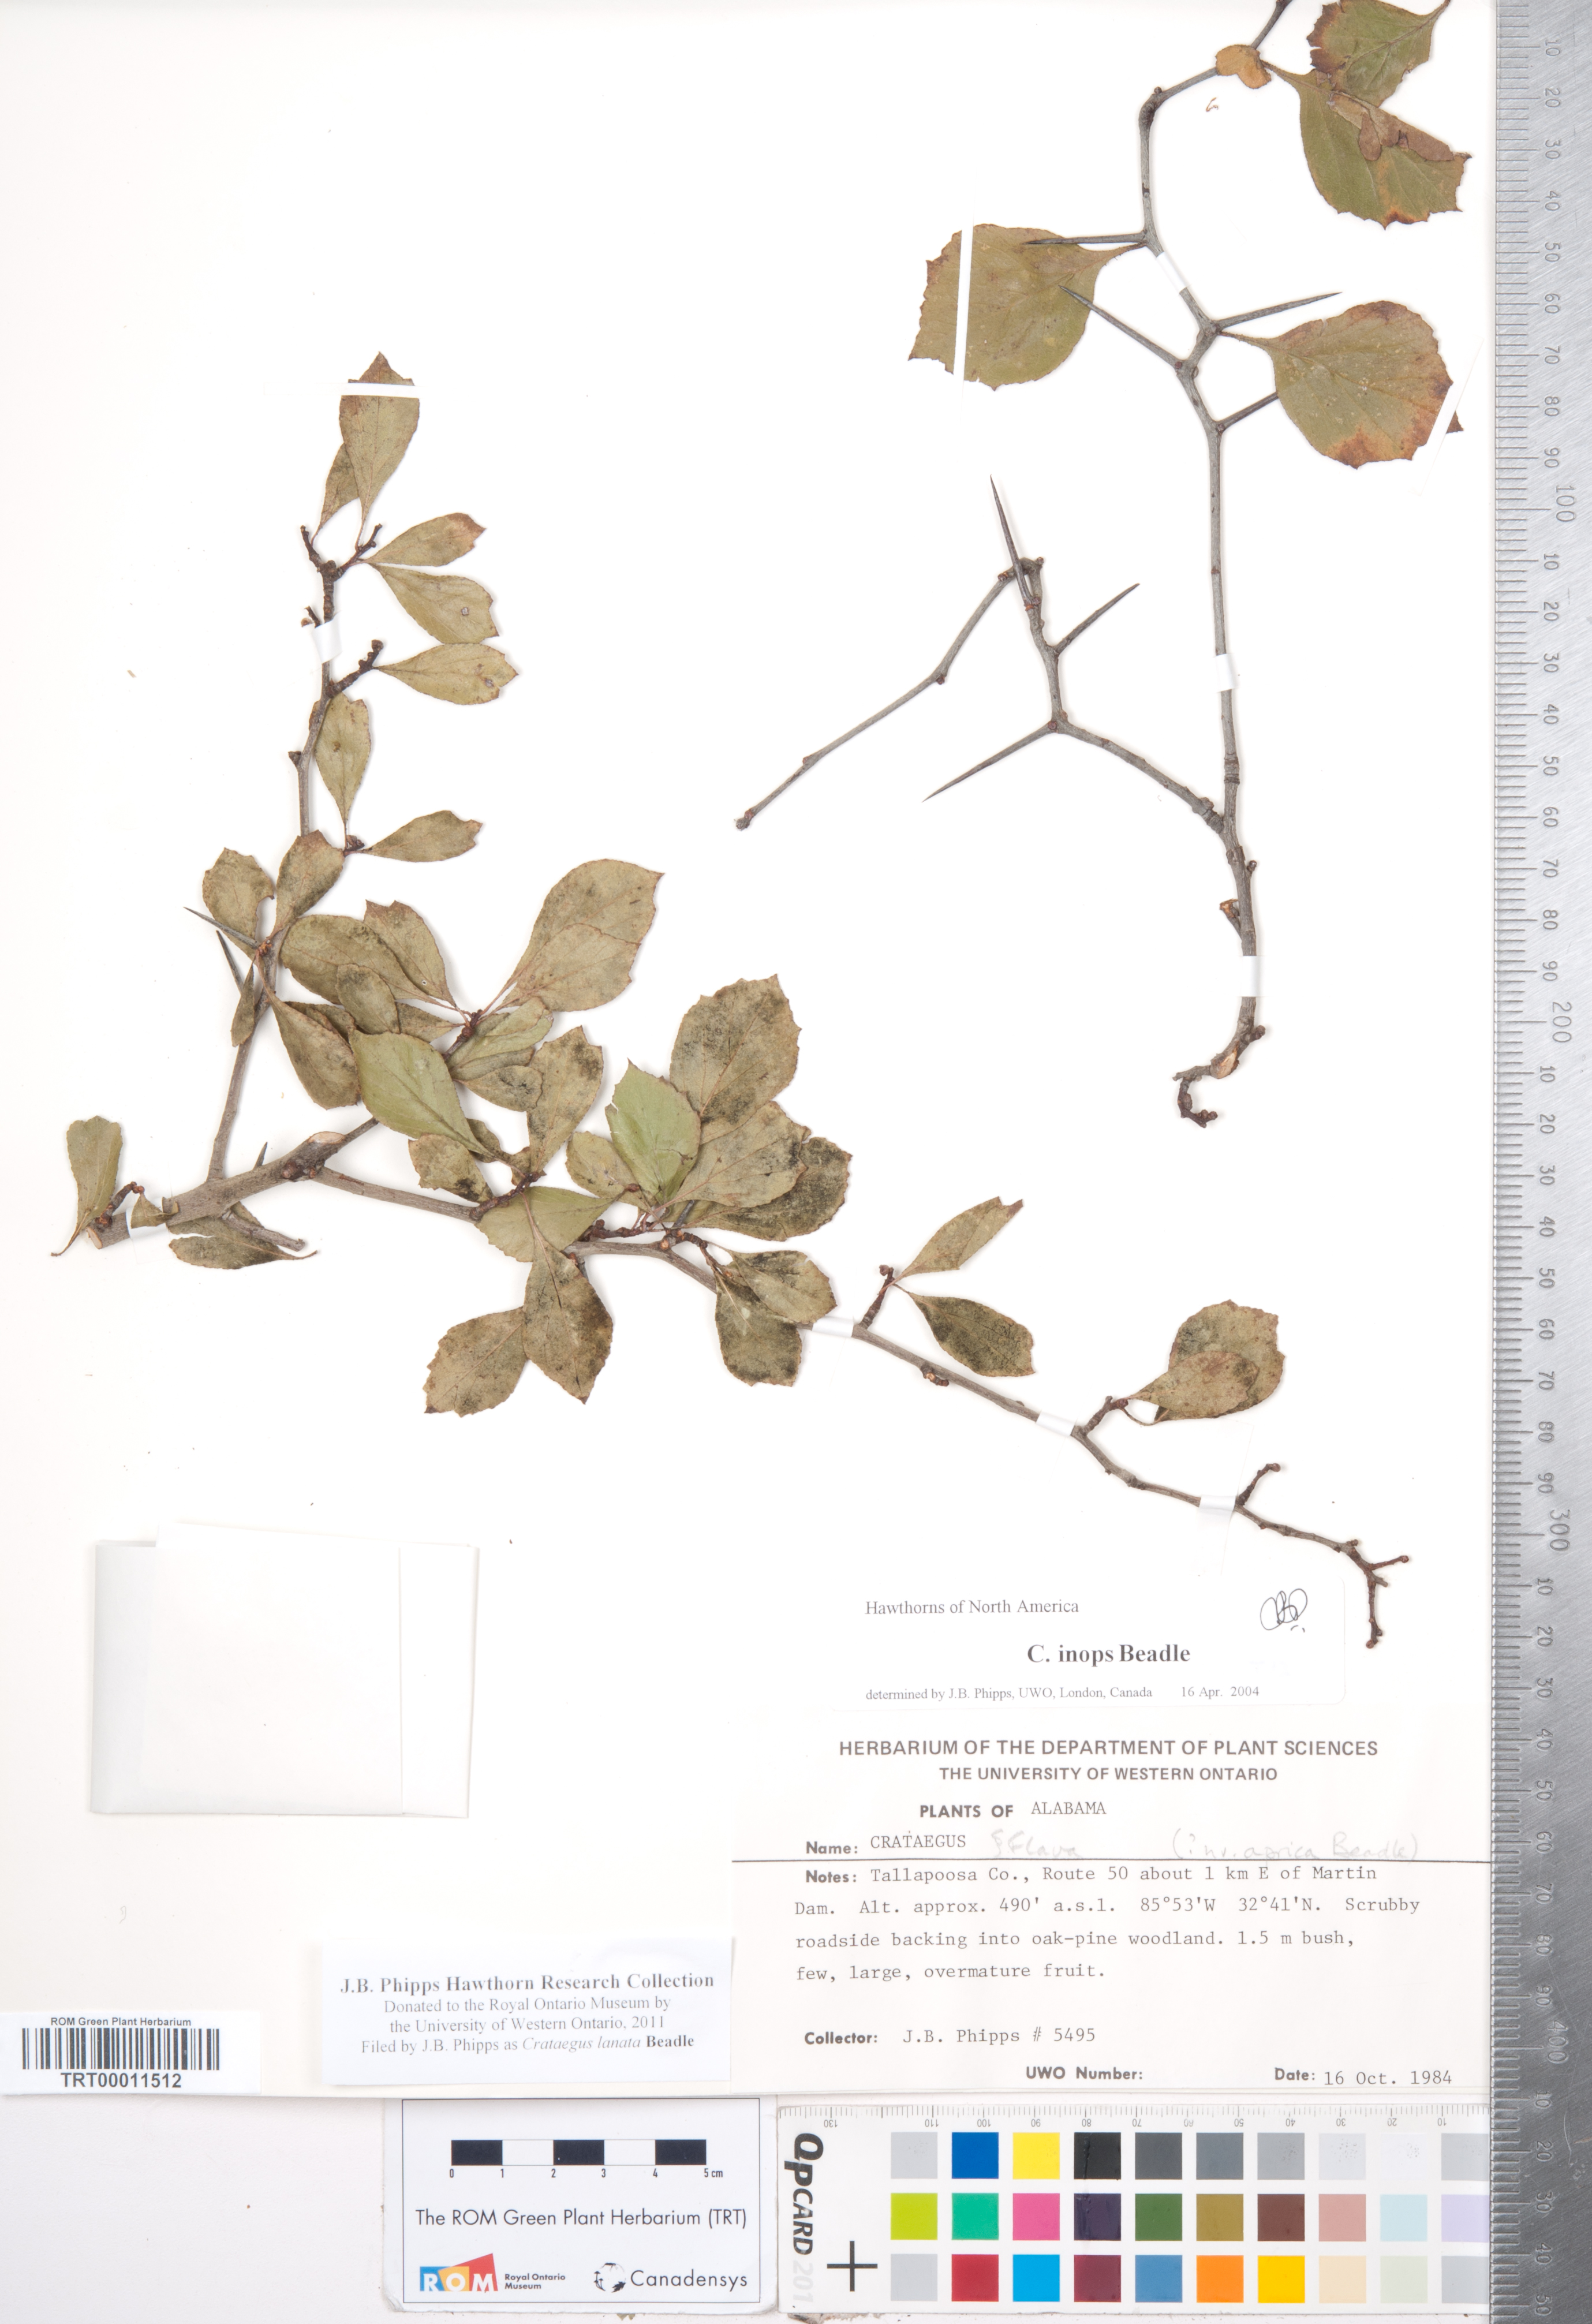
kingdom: Plantae
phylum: Tracheophyta
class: Magnoliopsida
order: Rosales
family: Rosaceae
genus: Crataegus
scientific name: Crataegus lassa
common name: Florida hawthorn
